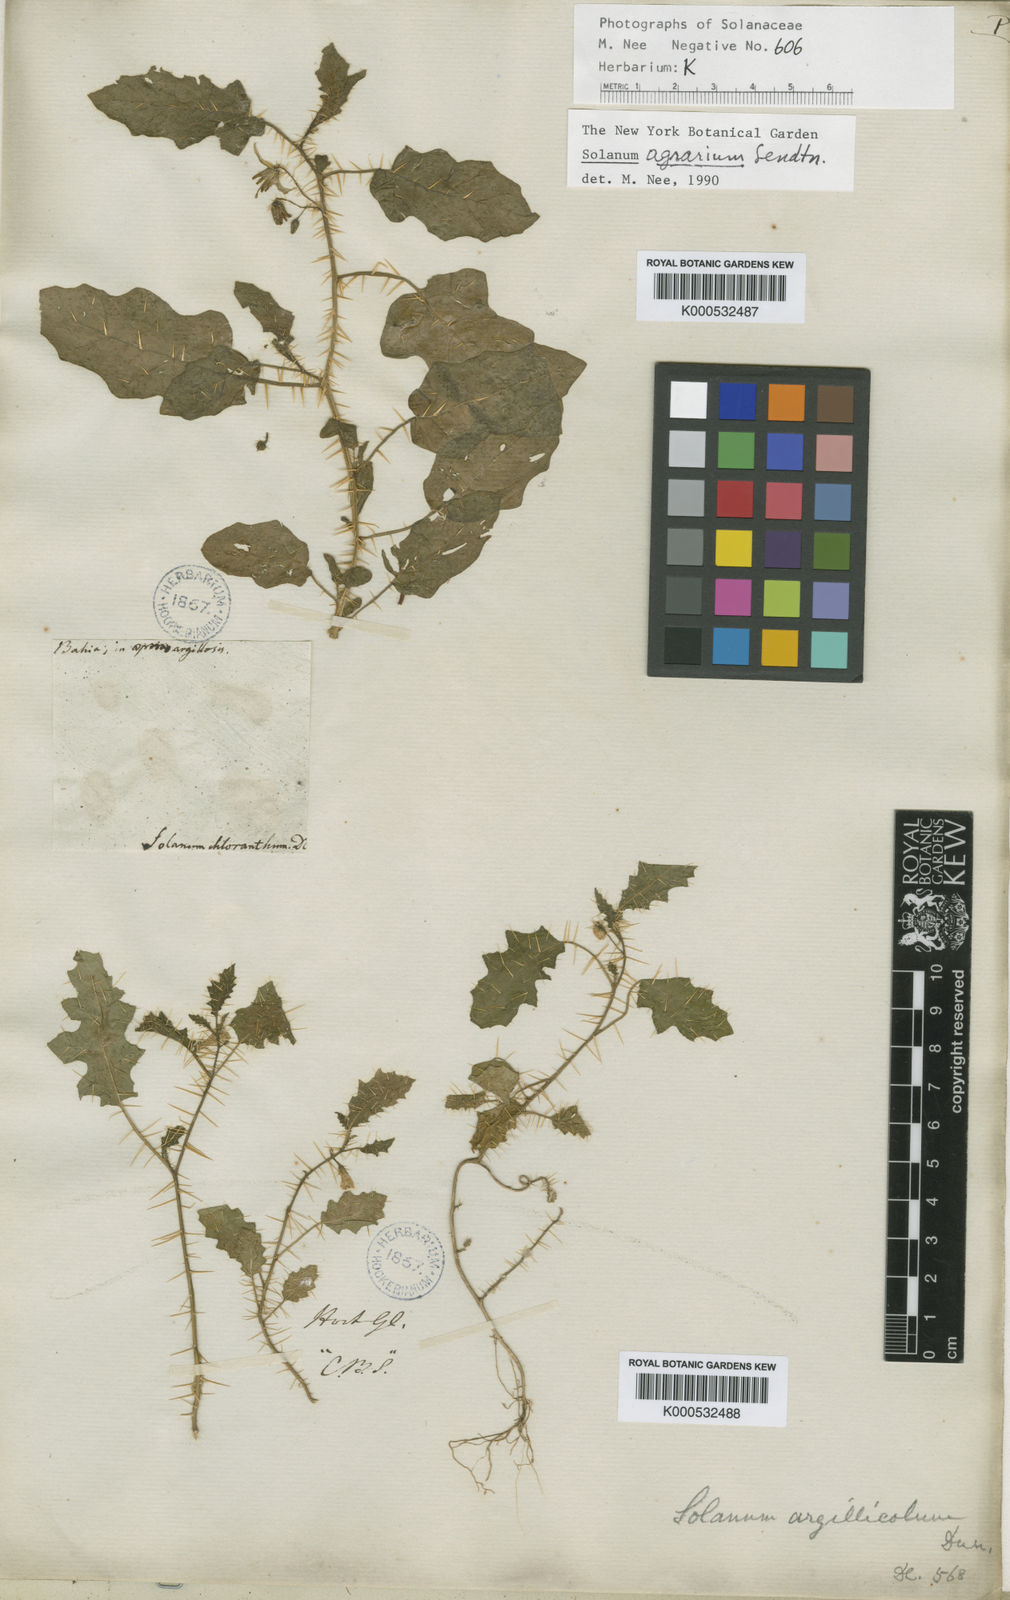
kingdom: Plantae
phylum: Tracheophyta
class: Magnoliopsida
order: Solanales
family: Solanaceae
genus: Solanum
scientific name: Solanum agrarium
